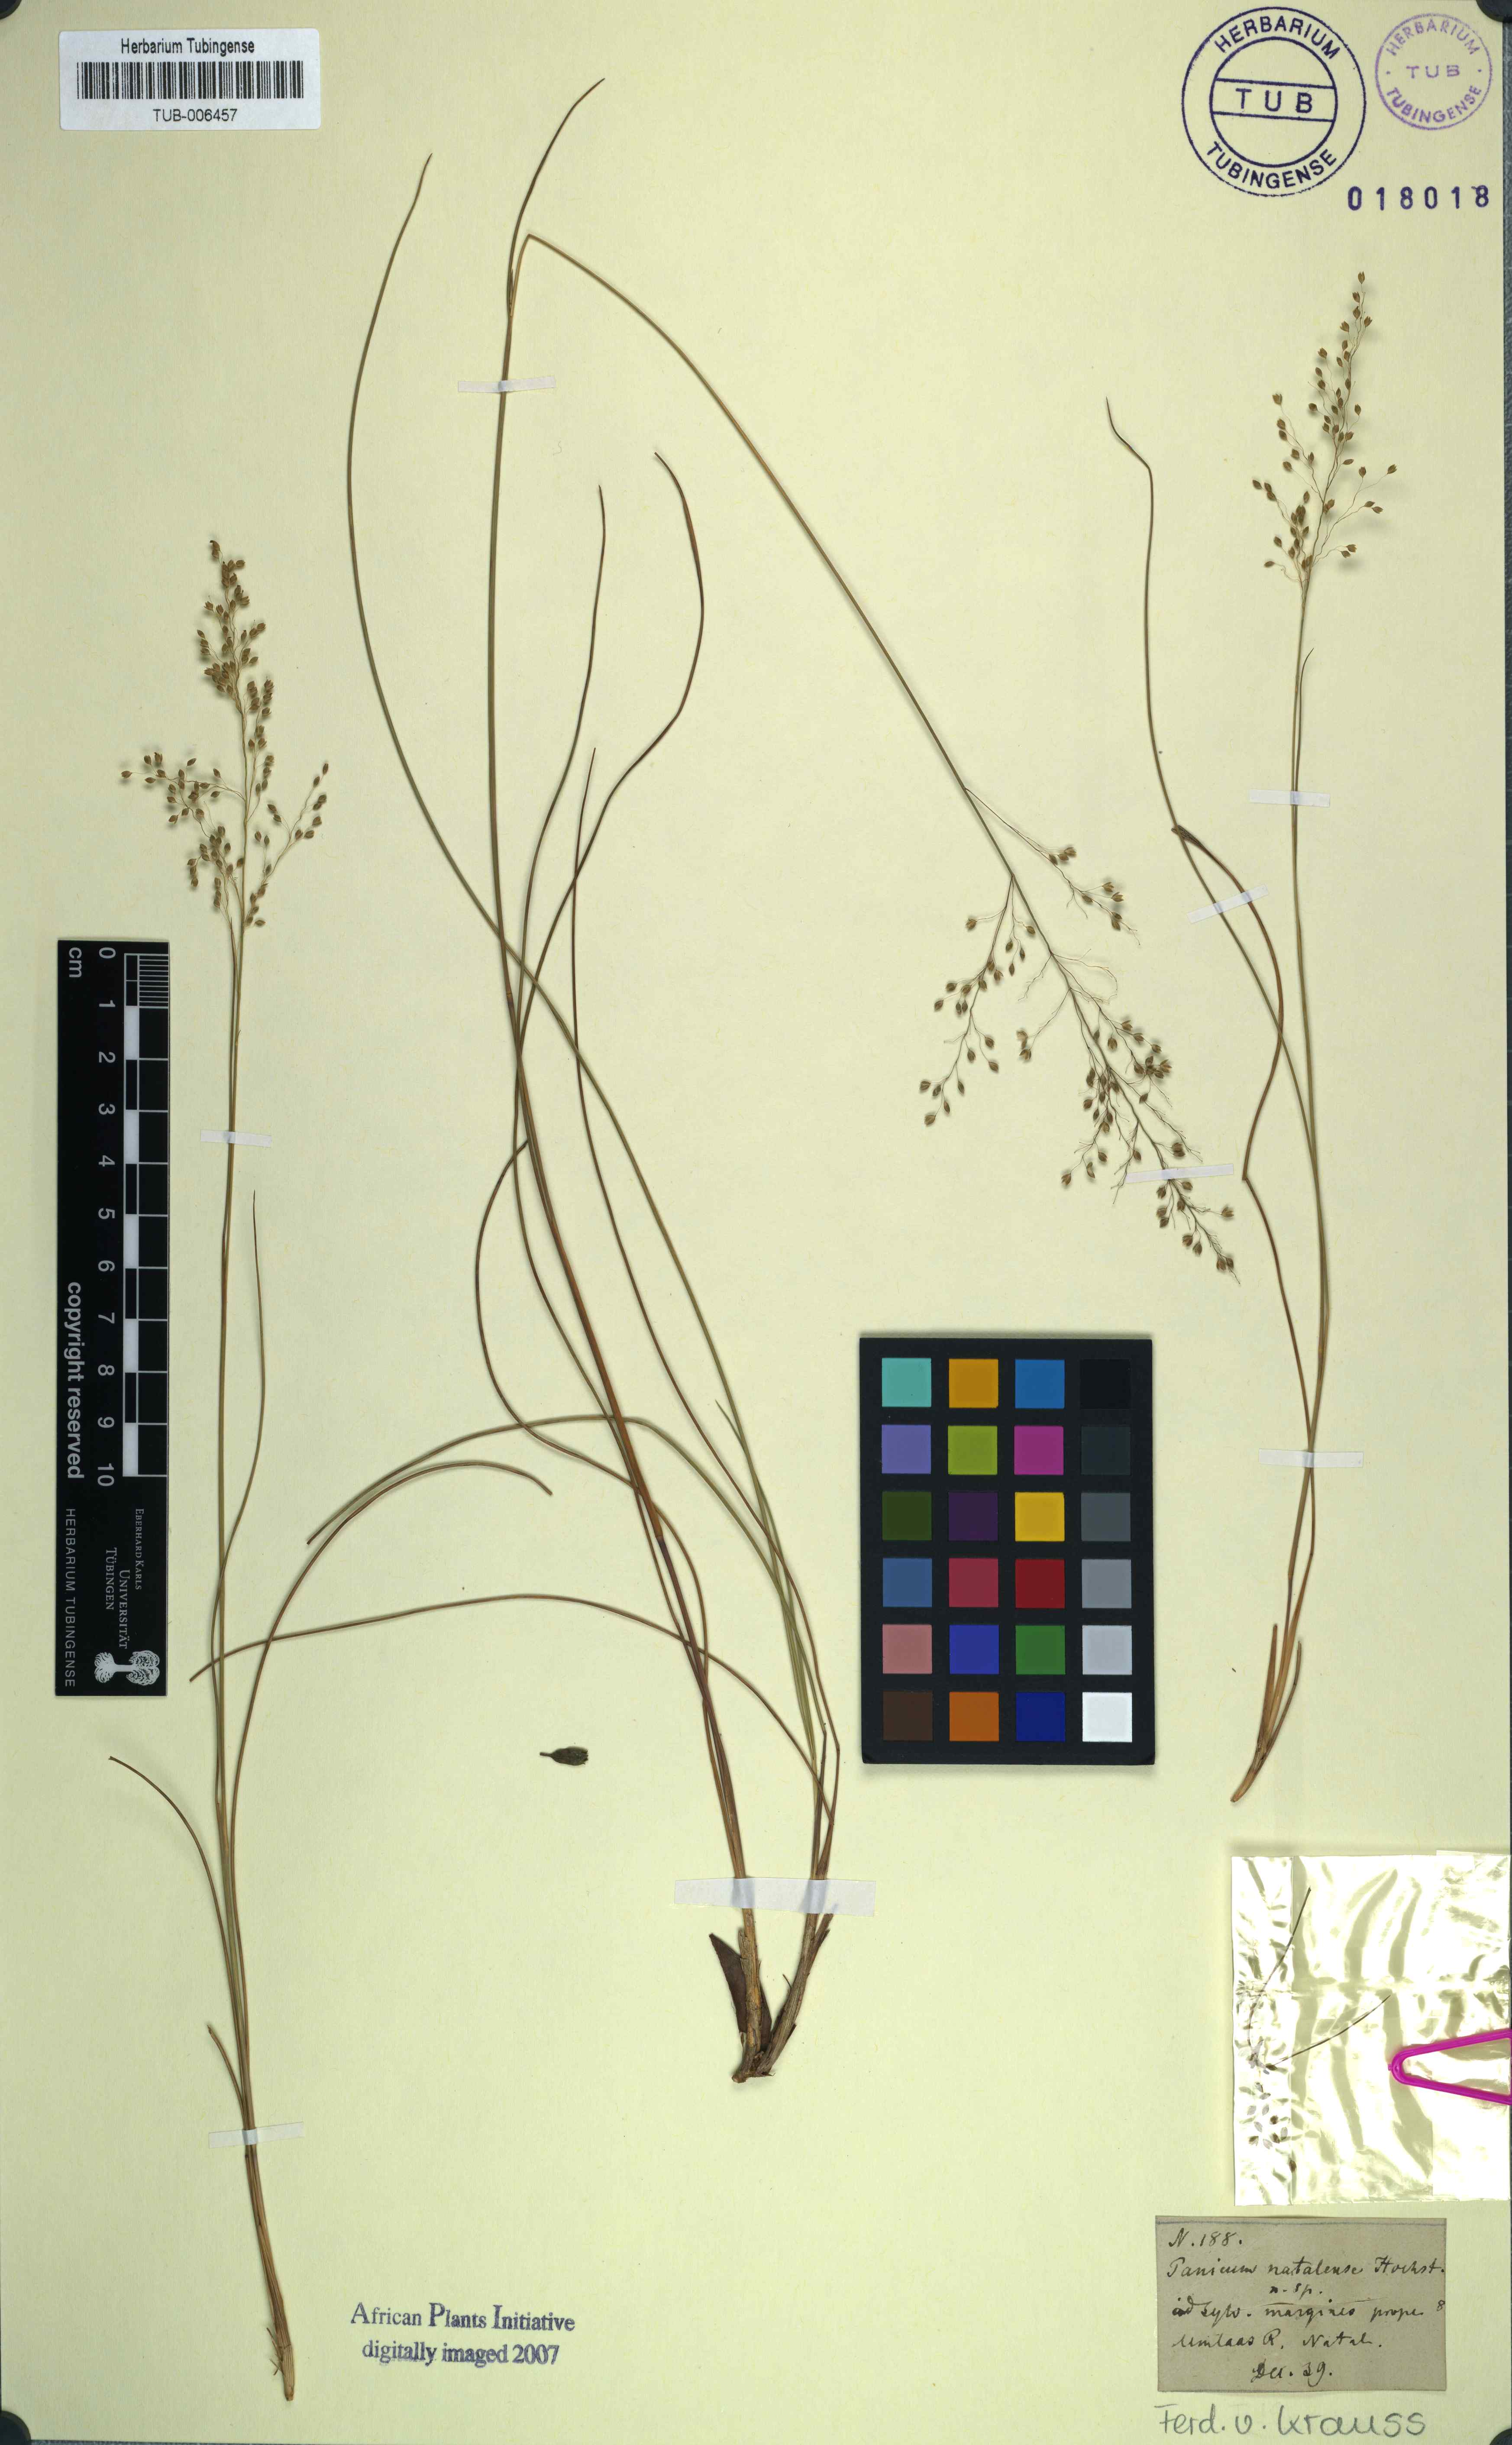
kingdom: Plantae
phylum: Tracheophyta
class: Liliopsida
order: Poales
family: Poaceae
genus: Trichanthecium
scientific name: Trichanthecium natalense
